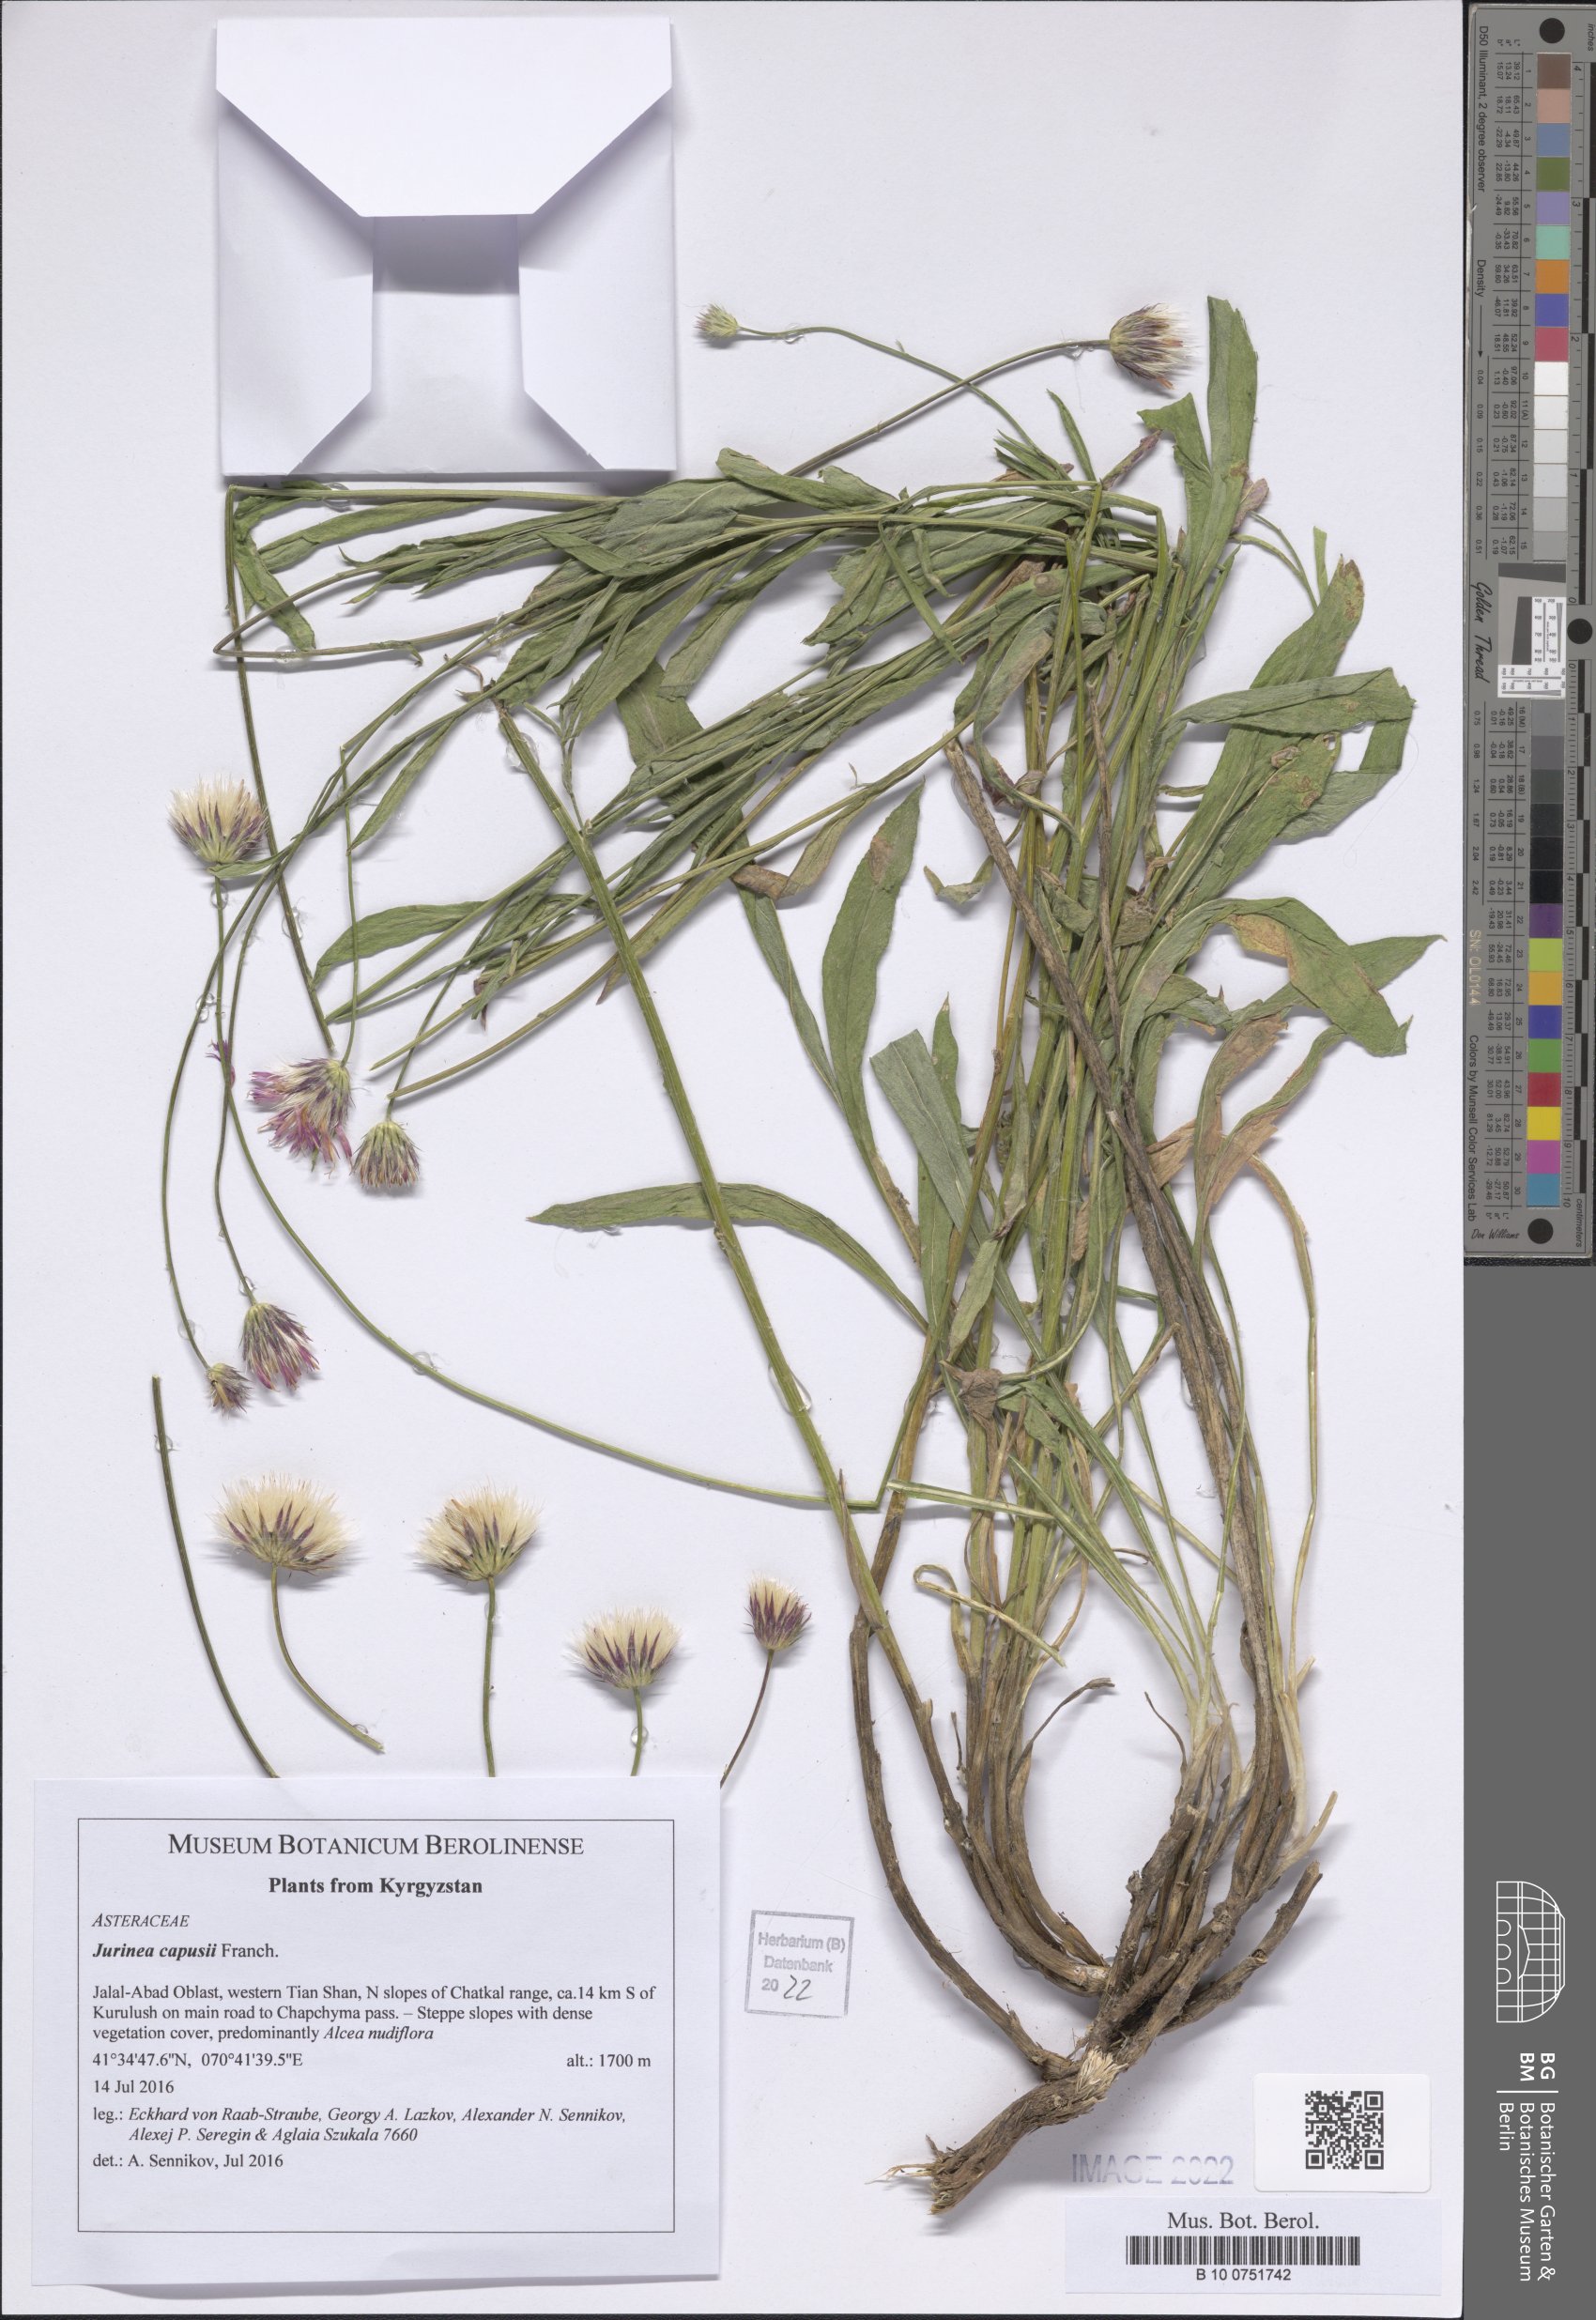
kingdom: Plantae
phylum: Tracheophyta
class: Magnoliopsida
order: Asterales
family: Asteraceae
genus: Jurinea
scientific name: Jurinea capusii
